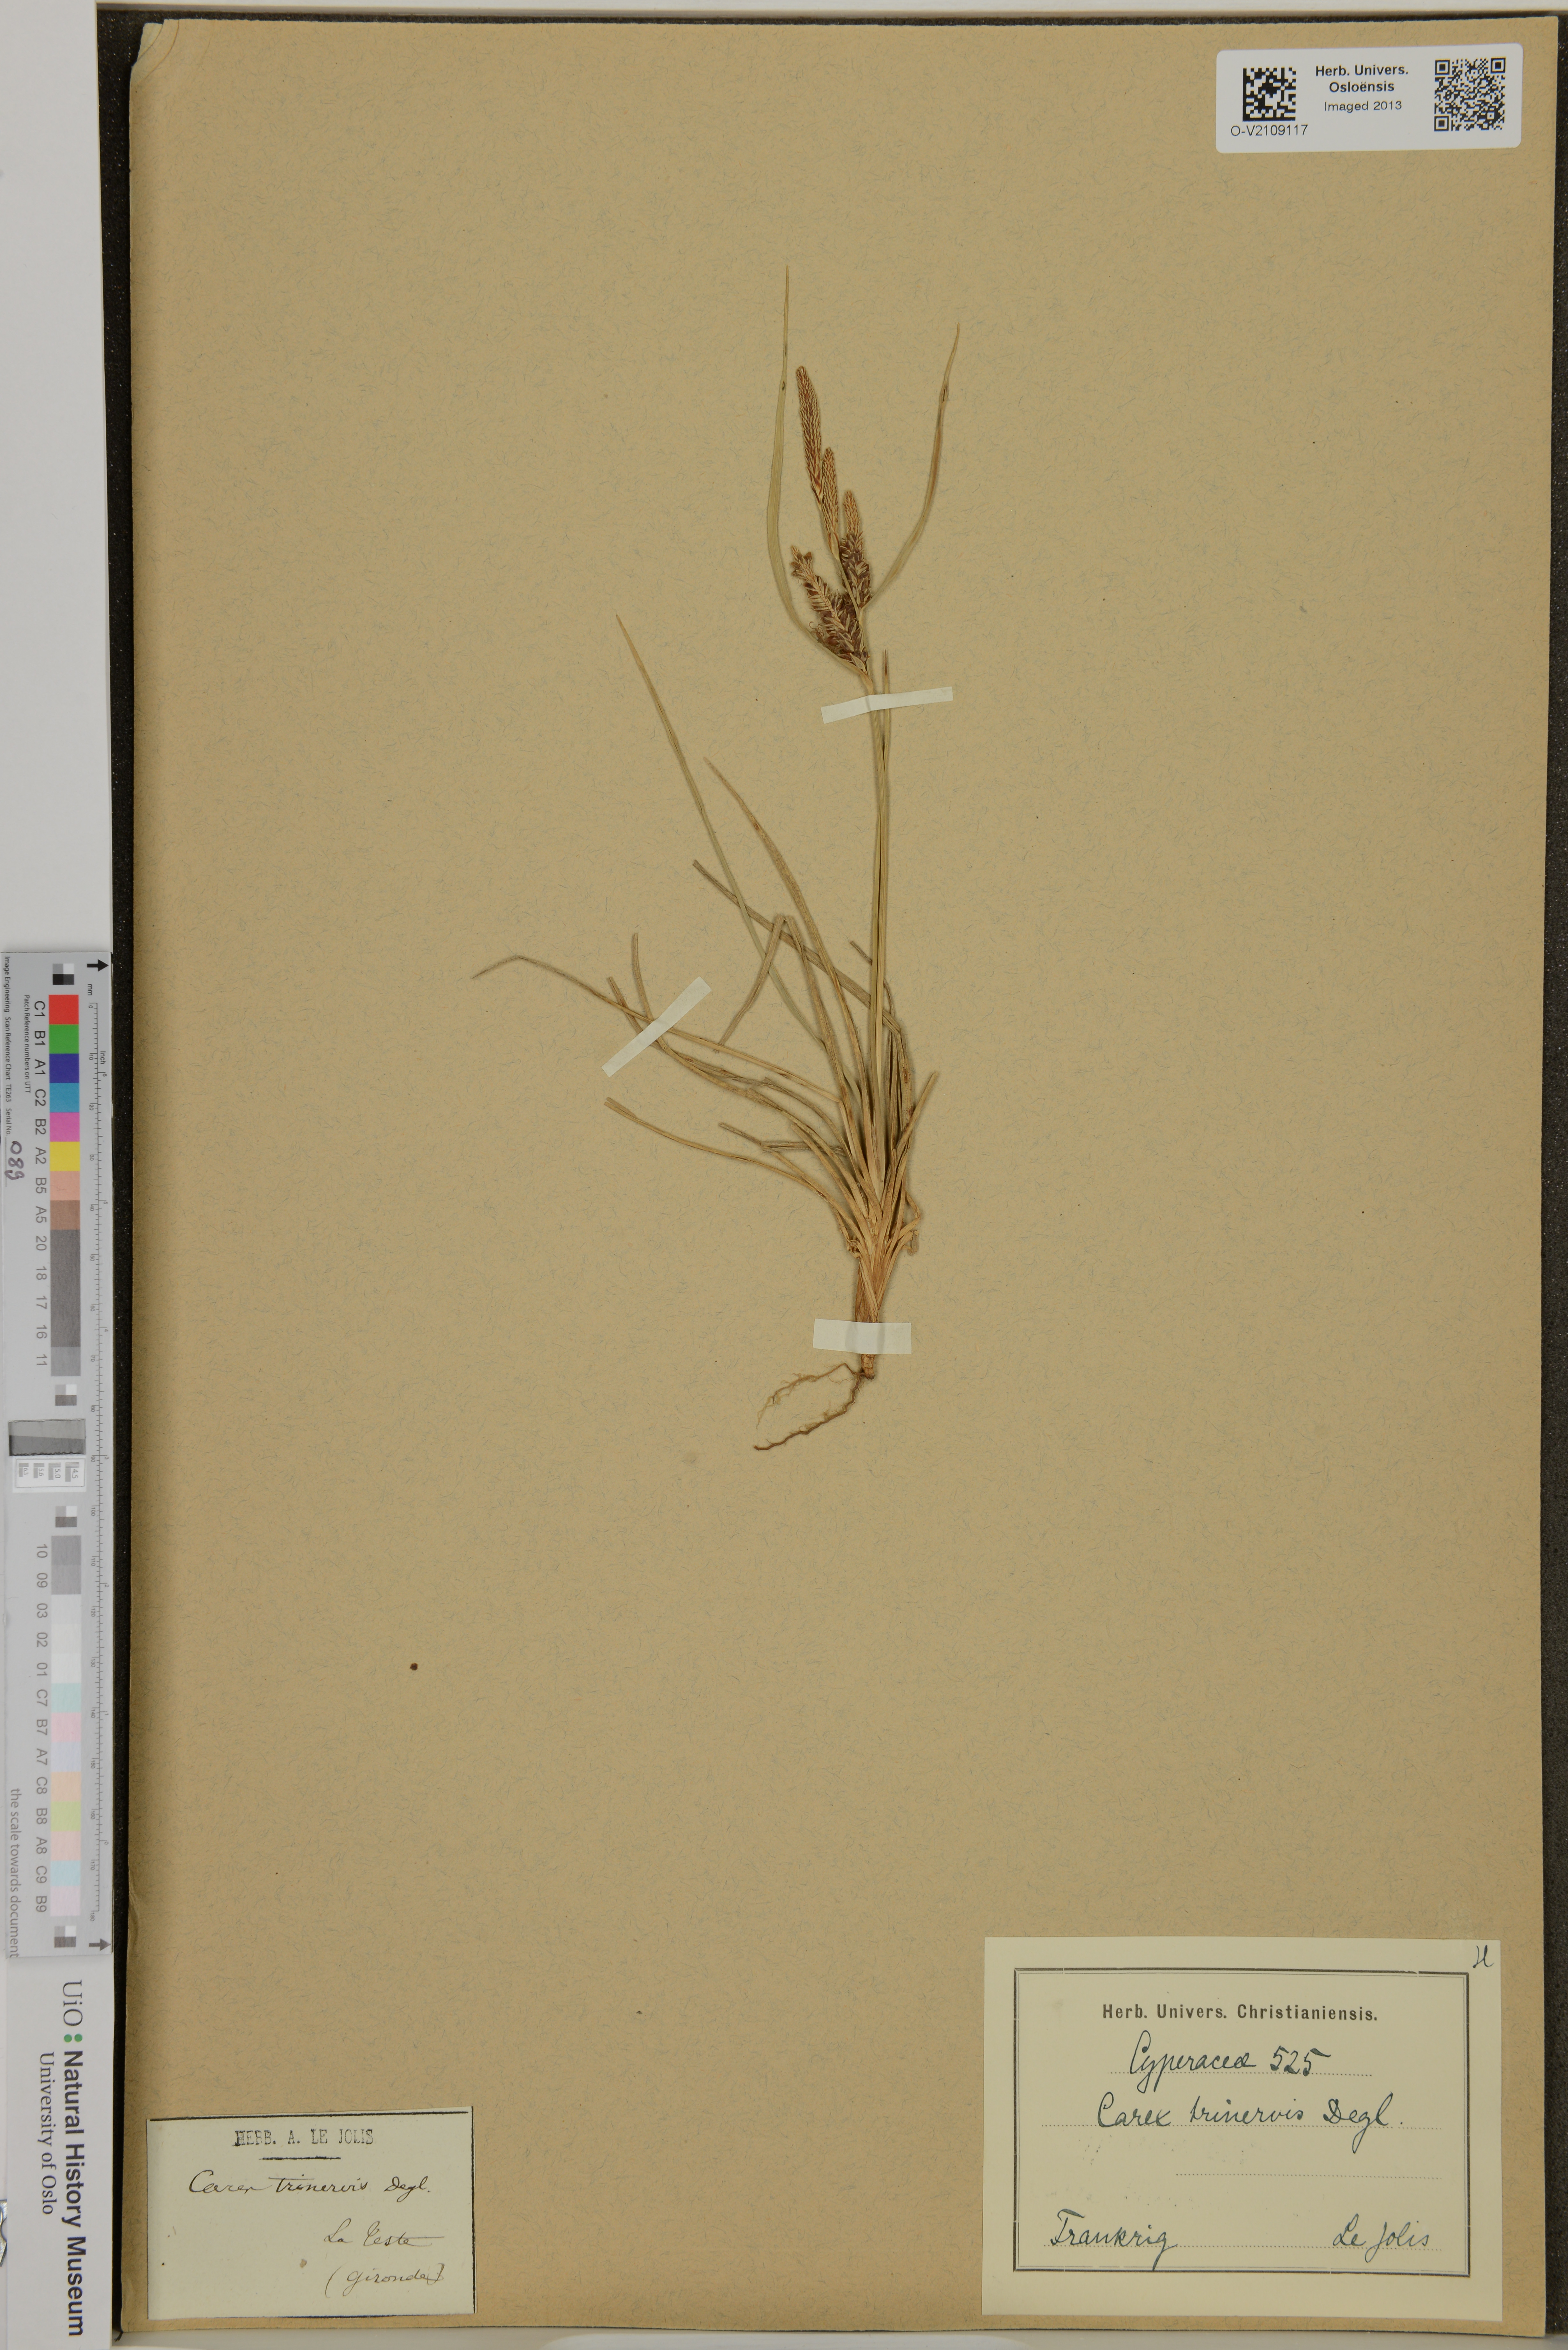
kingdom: Plantae
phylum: Tracheophyta
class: Liliopsida
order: Poales
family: Cyperaceae
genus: Carex
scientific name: Carex trinervis
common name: Three-nerved sedge
